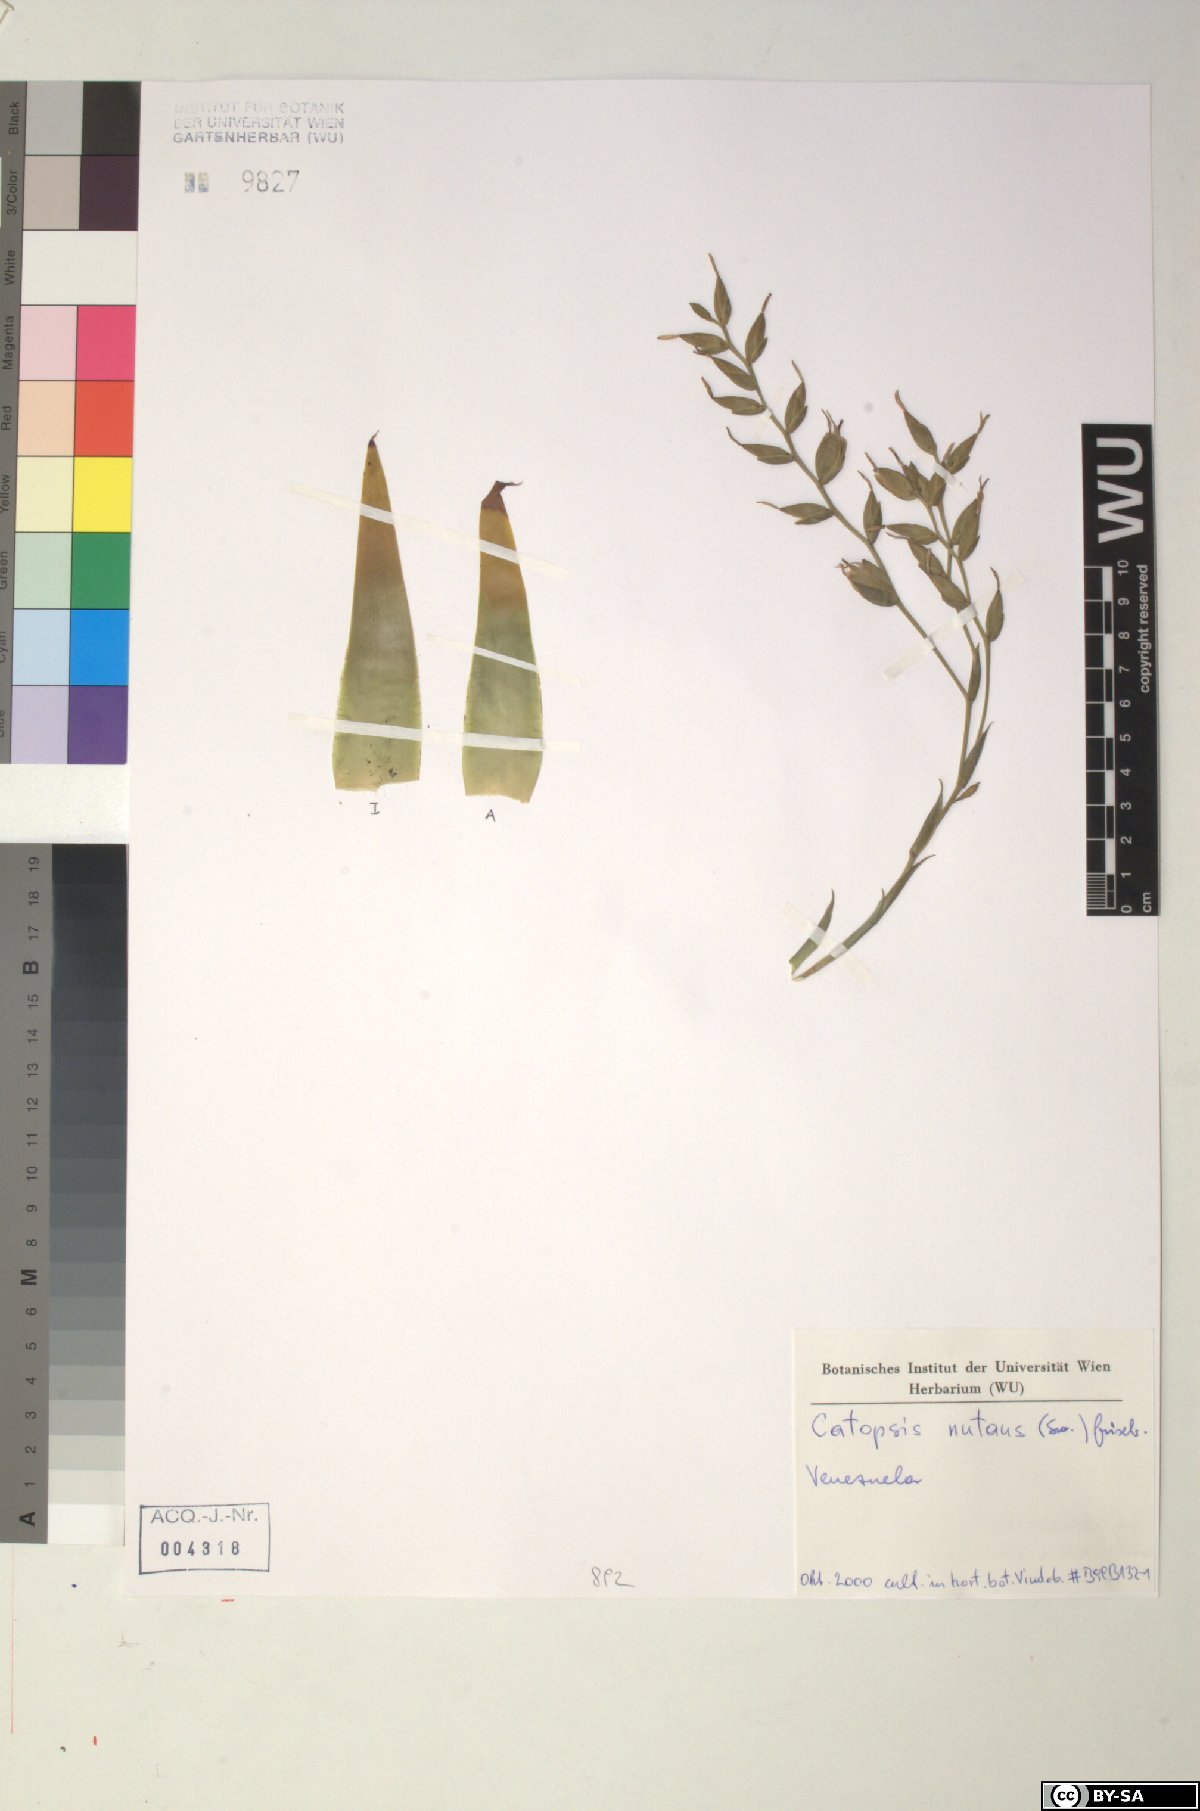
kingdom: Plantae
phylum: Tracheophyta
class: Liliopsida
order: Poales
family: Bromeliaceae
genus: Catopsis
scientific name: Catopsis nutans
